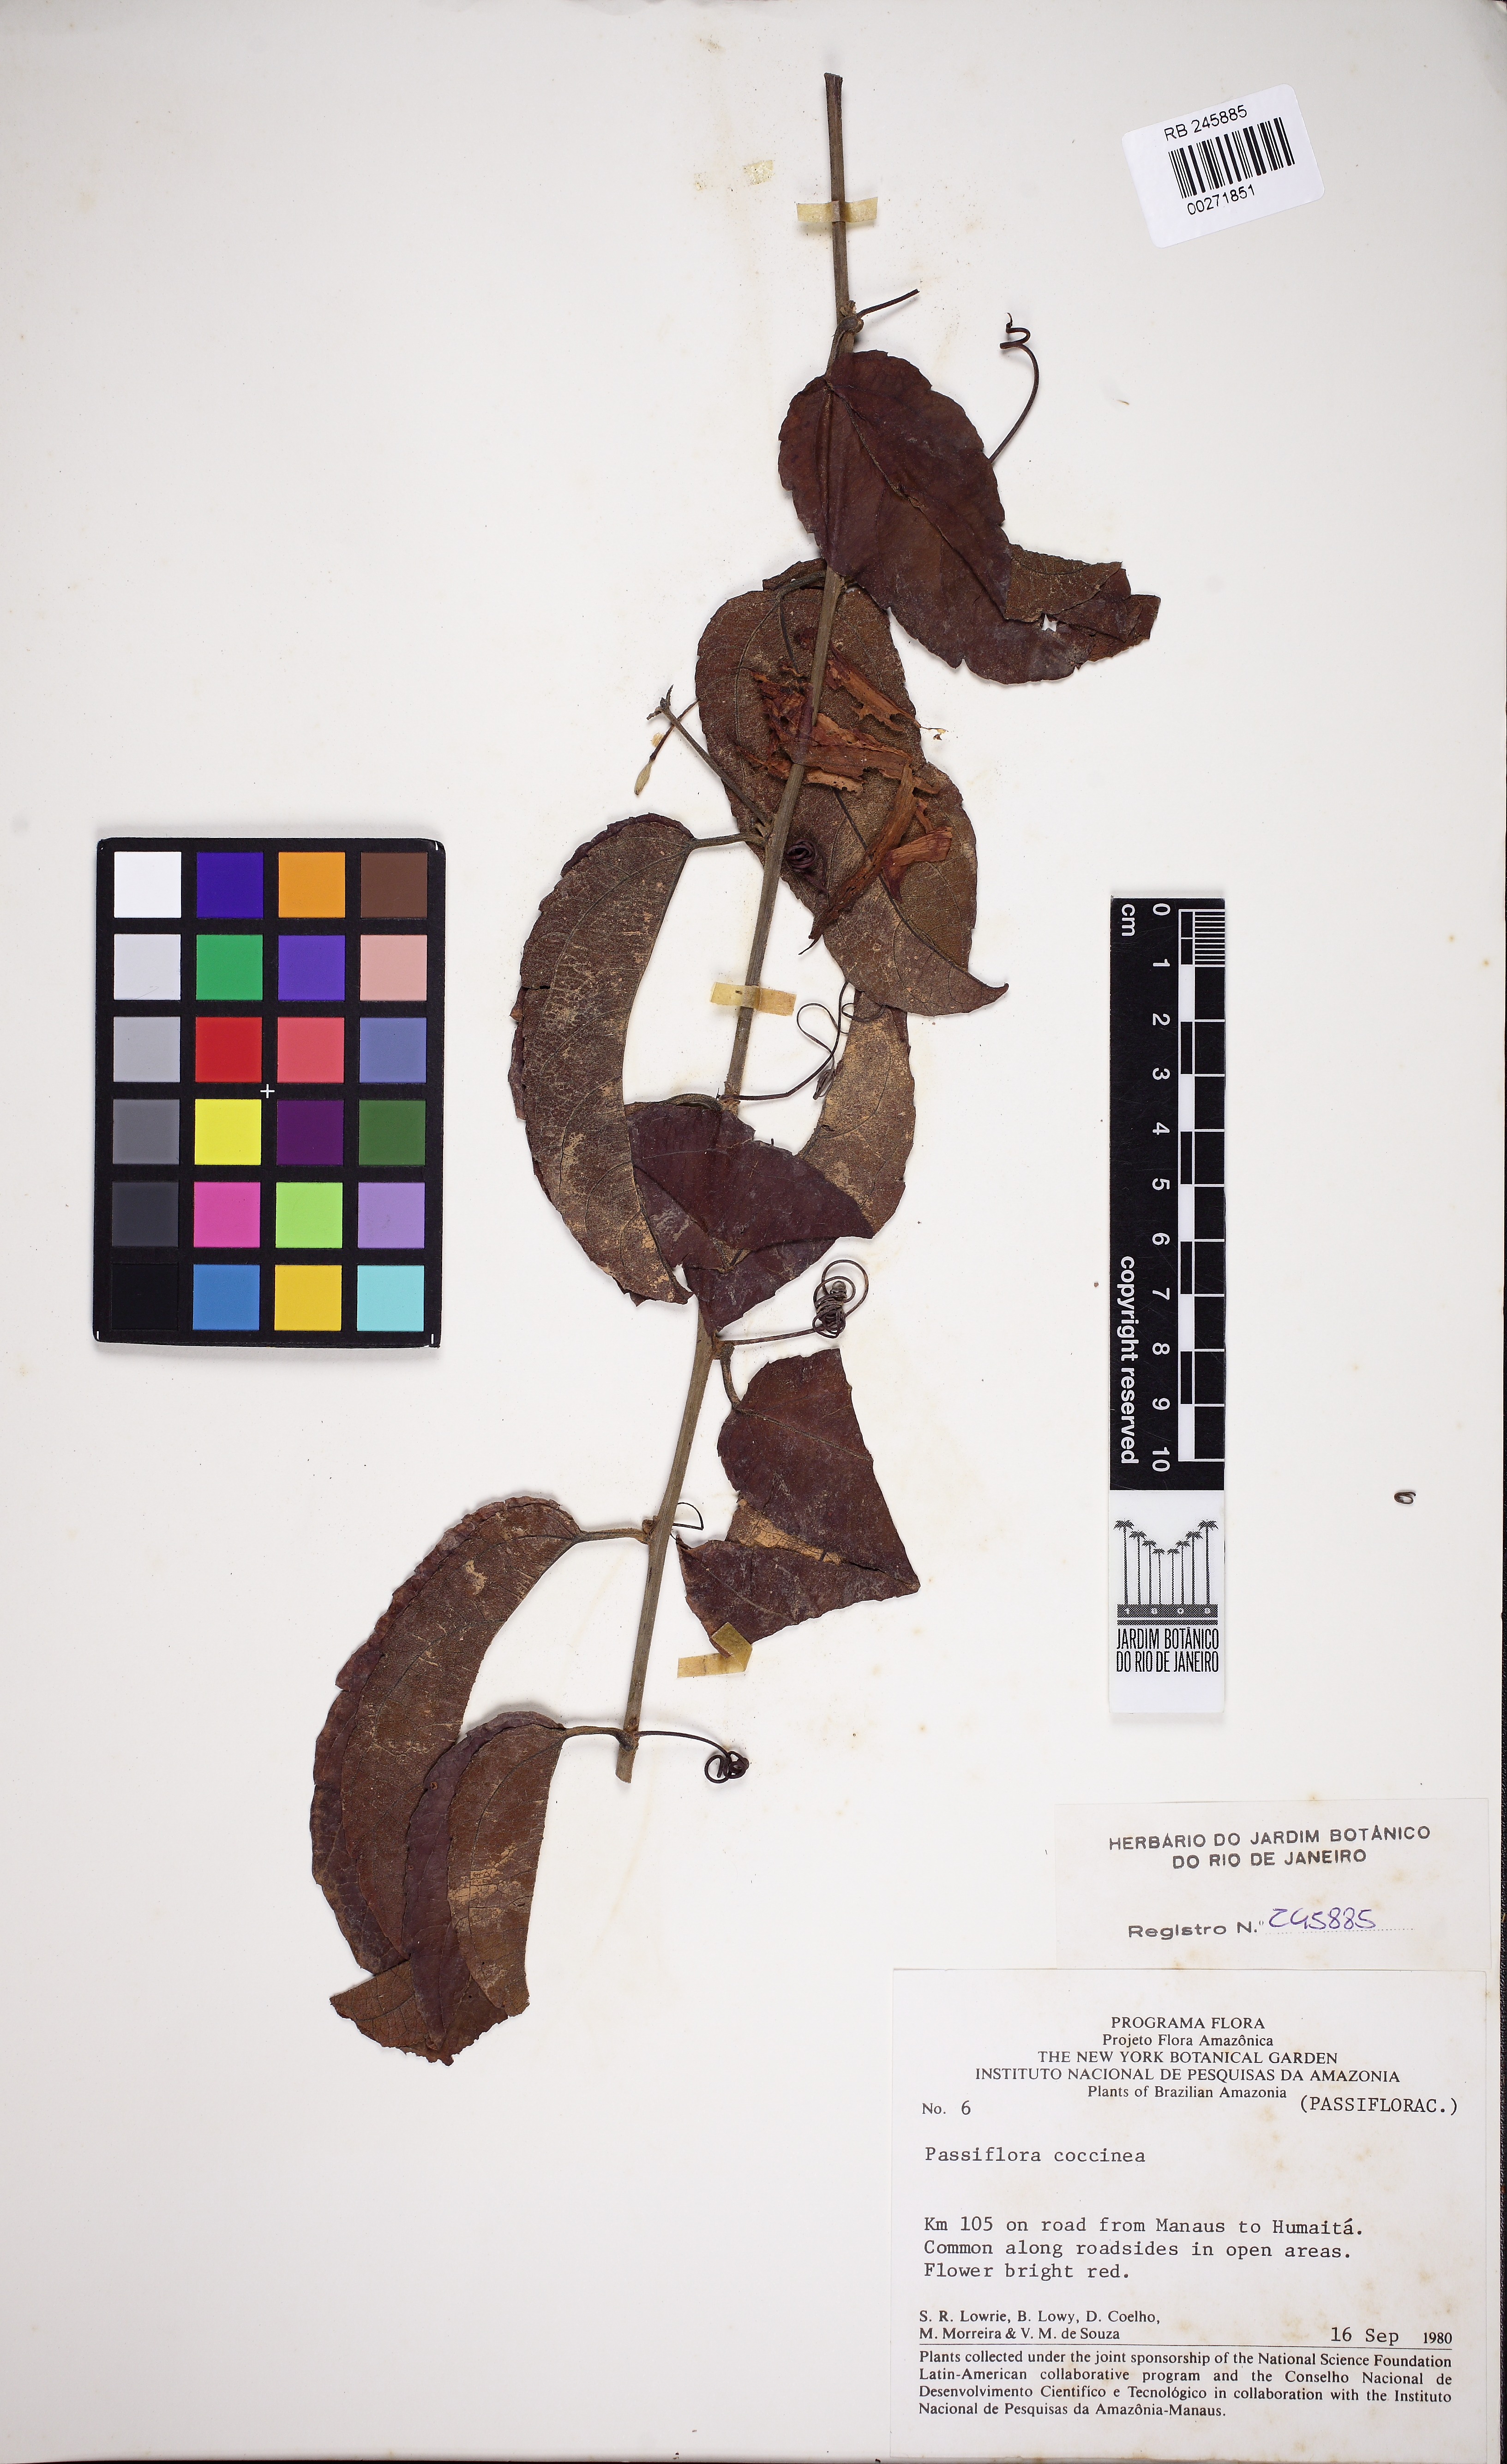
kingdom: Plantae
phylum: Tracheophyta
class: Magnoliopsida
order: Malpighiales
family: Passifloraceae
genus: Passiflora
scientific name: Passiflora quadriglandulosa
